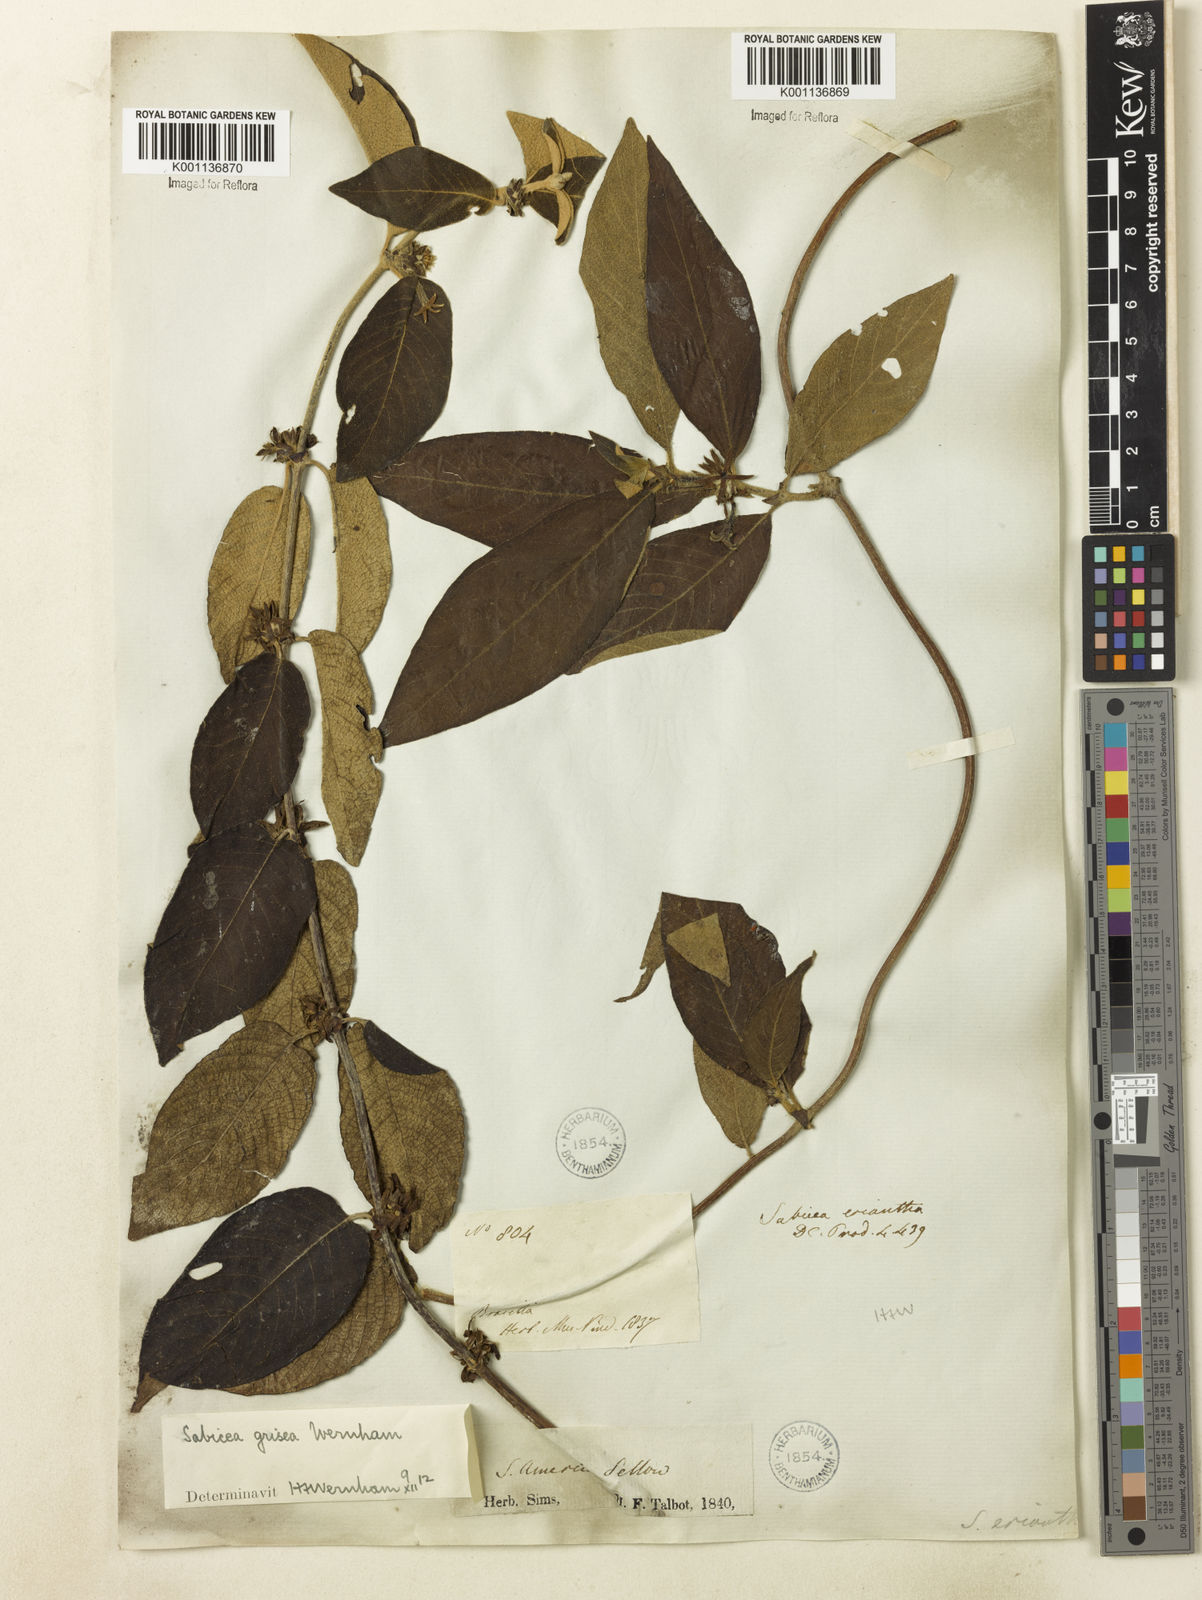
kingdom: Plantae
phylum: Tracheophyta
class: Magnoliopsida
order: Gentianales
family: Rubiaceae
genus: Sabicea
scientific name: Sabicea grisea
